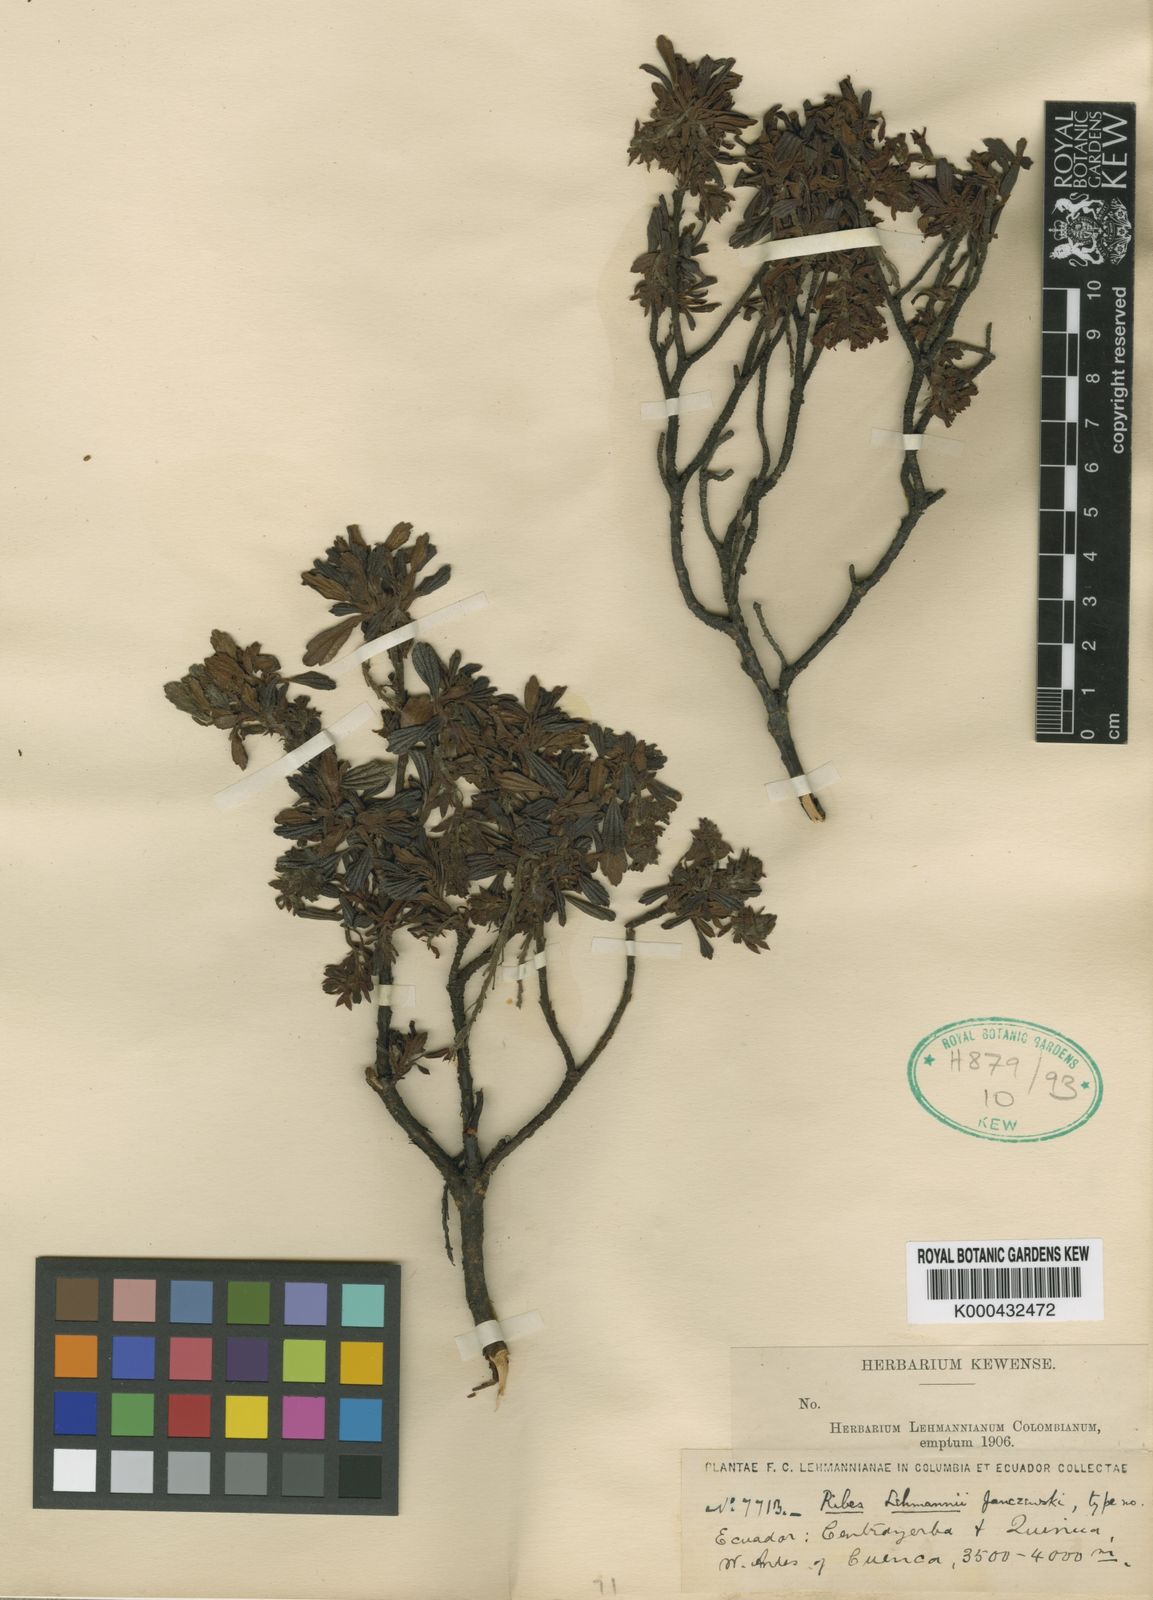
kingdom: Plantae
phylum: Tracheophyta
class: Magnoliopsida
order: Saxifragales
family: Grossulariaceae
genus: Ribes
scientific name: Ribes lehmannii
